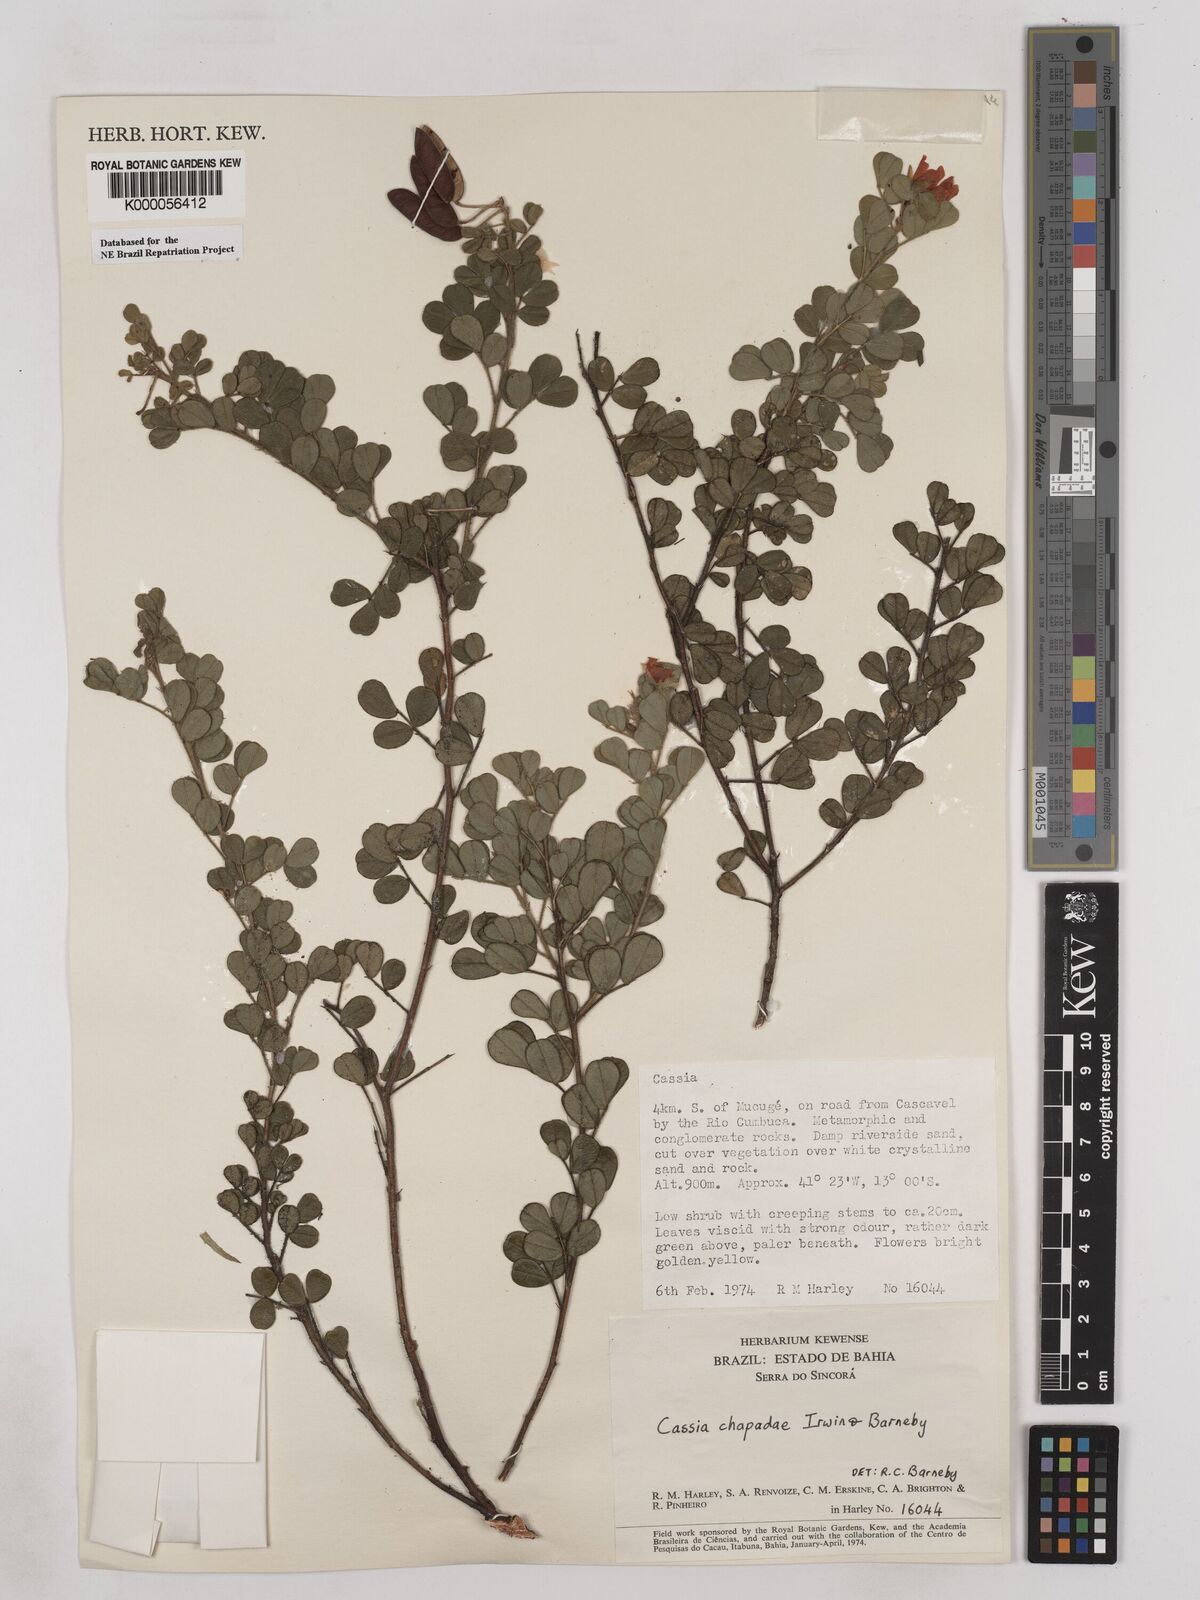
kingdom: Plantae
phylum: Tracheophyta
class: Magnoliopsida
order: Fabales
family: Fabaceae
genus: Chamaecrista
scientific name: Chamaecrista chapadae
